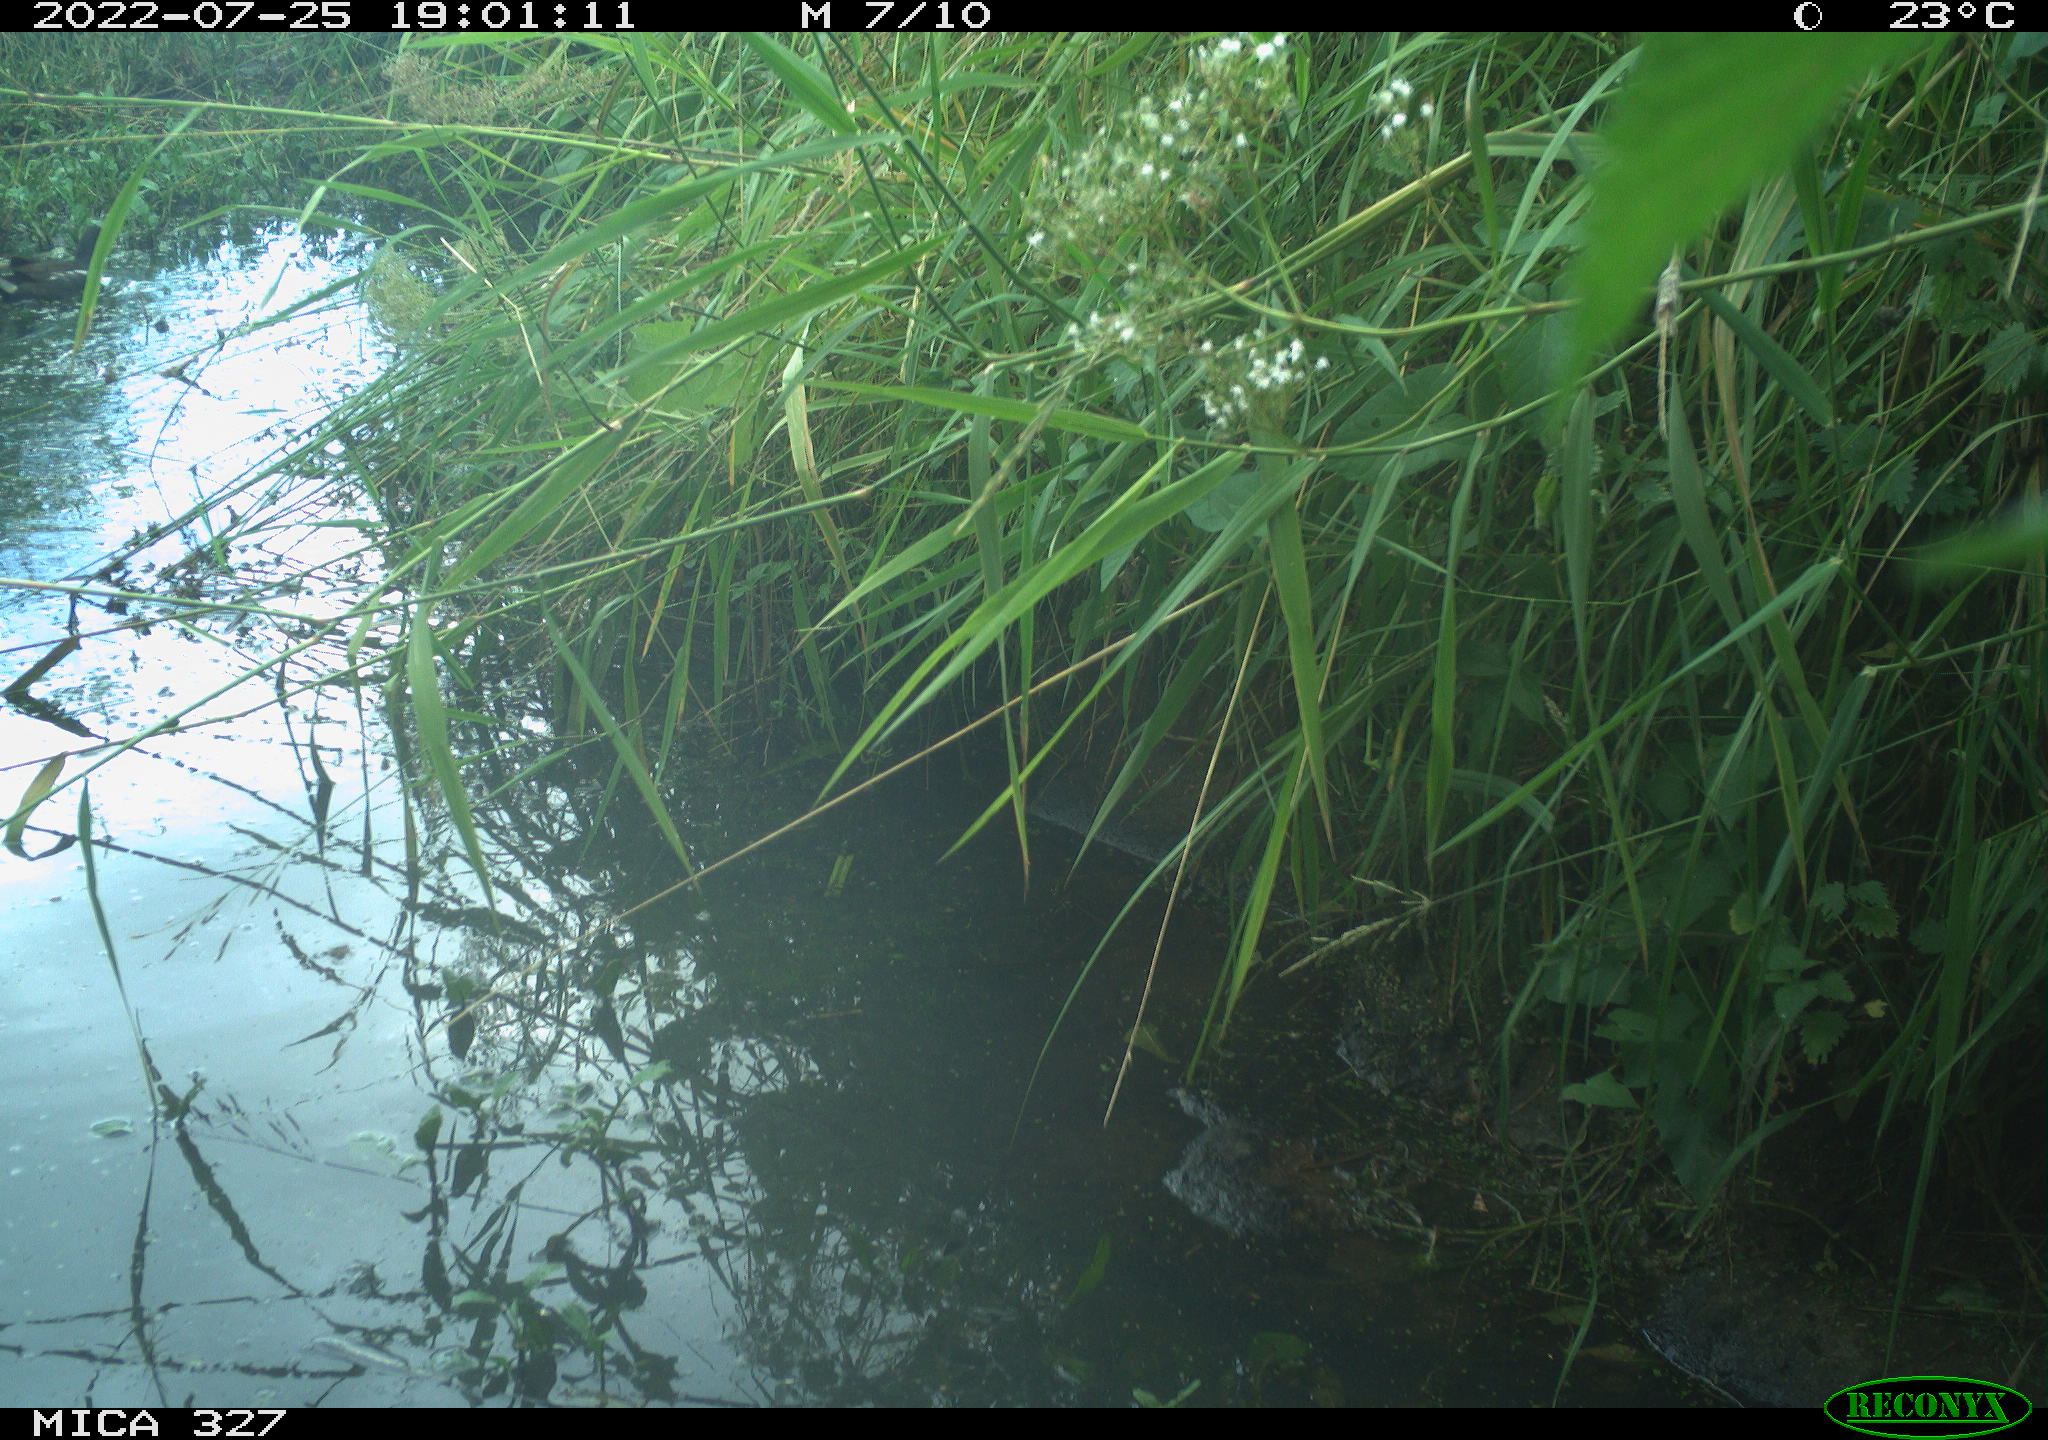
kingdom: Animalia
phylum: Chordata
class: Aves
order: Gruiformes
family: Rallidae
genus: Gallinula
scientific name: Gallinula chloropus
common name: Common moorhen
